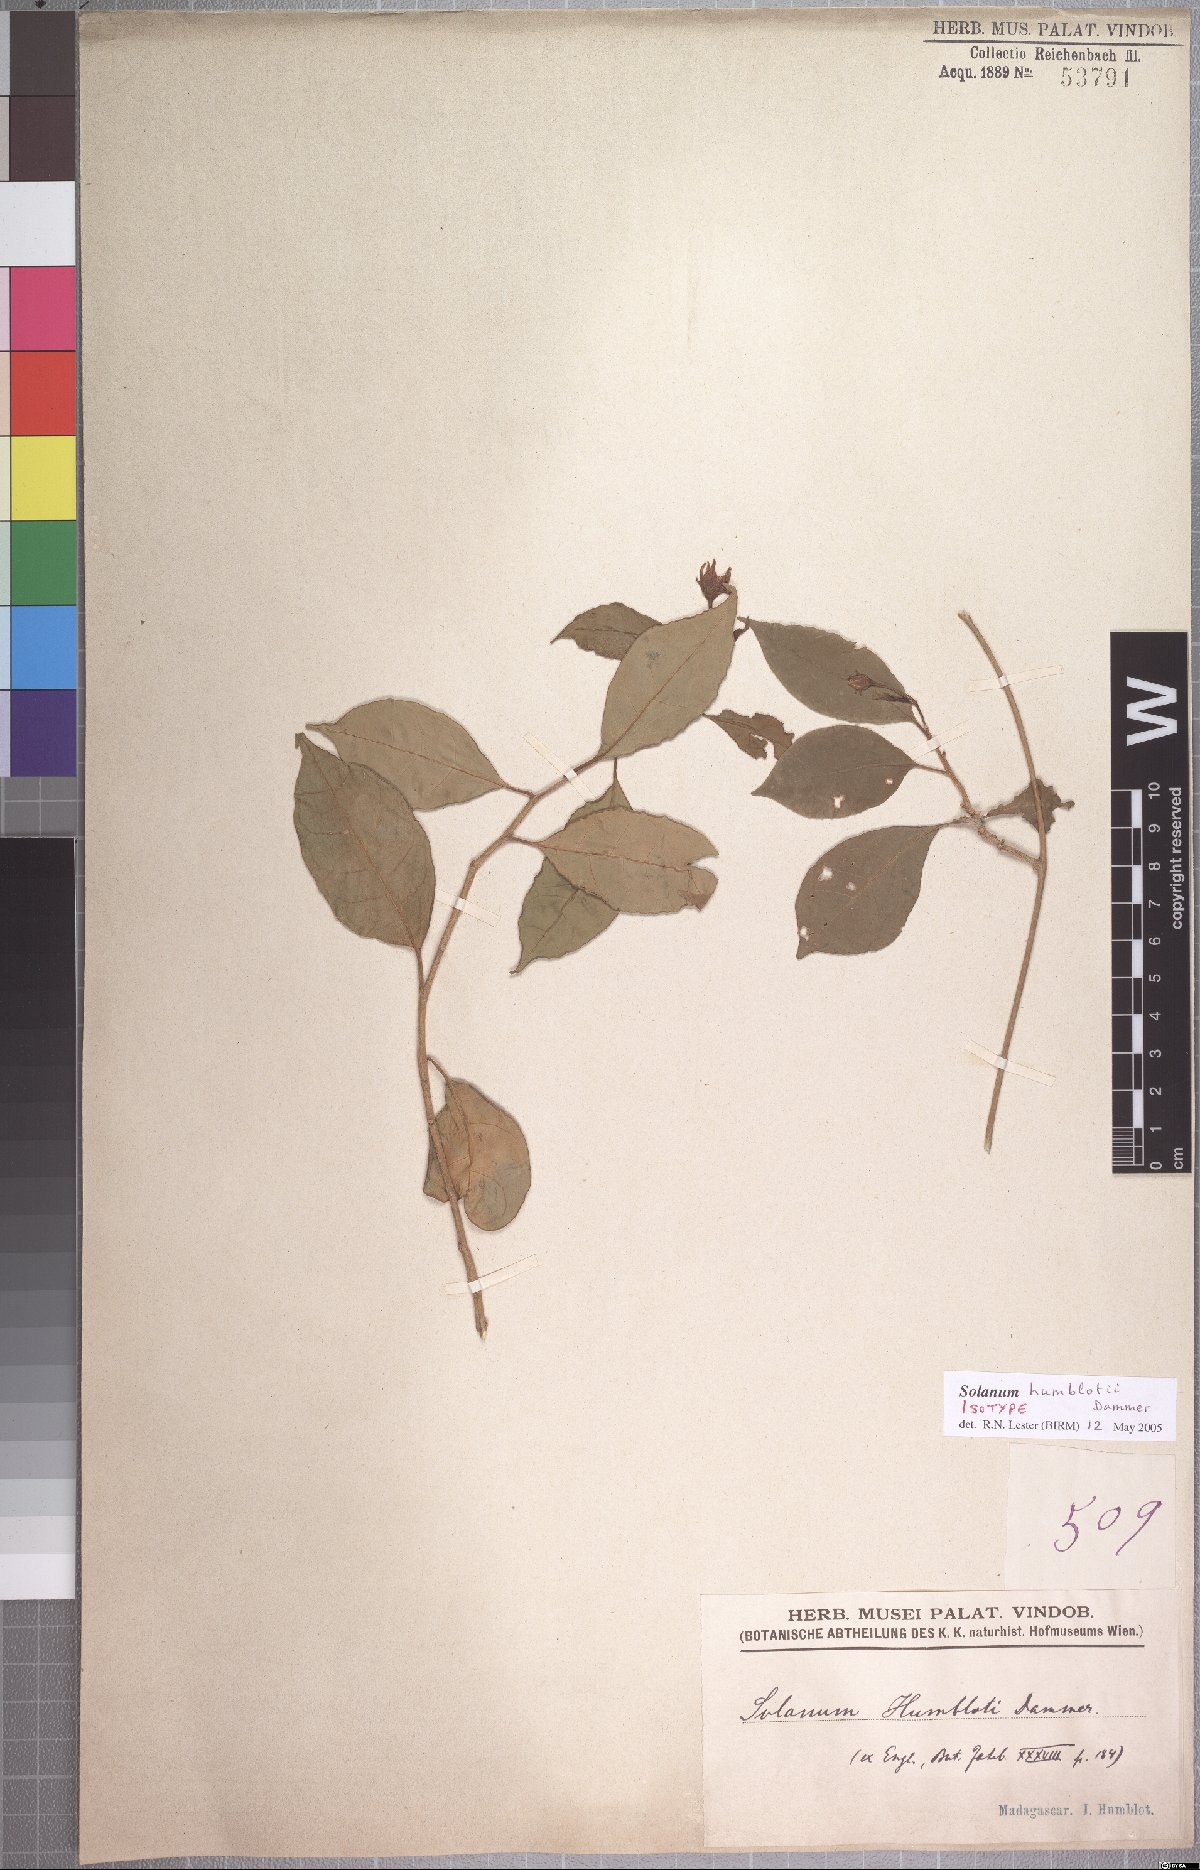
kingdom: Plantae
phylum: Tracheophyta
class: Magnoliopsida
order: Solanales
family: Solanaceae
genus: Solanum
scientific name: Solanum humblotii
